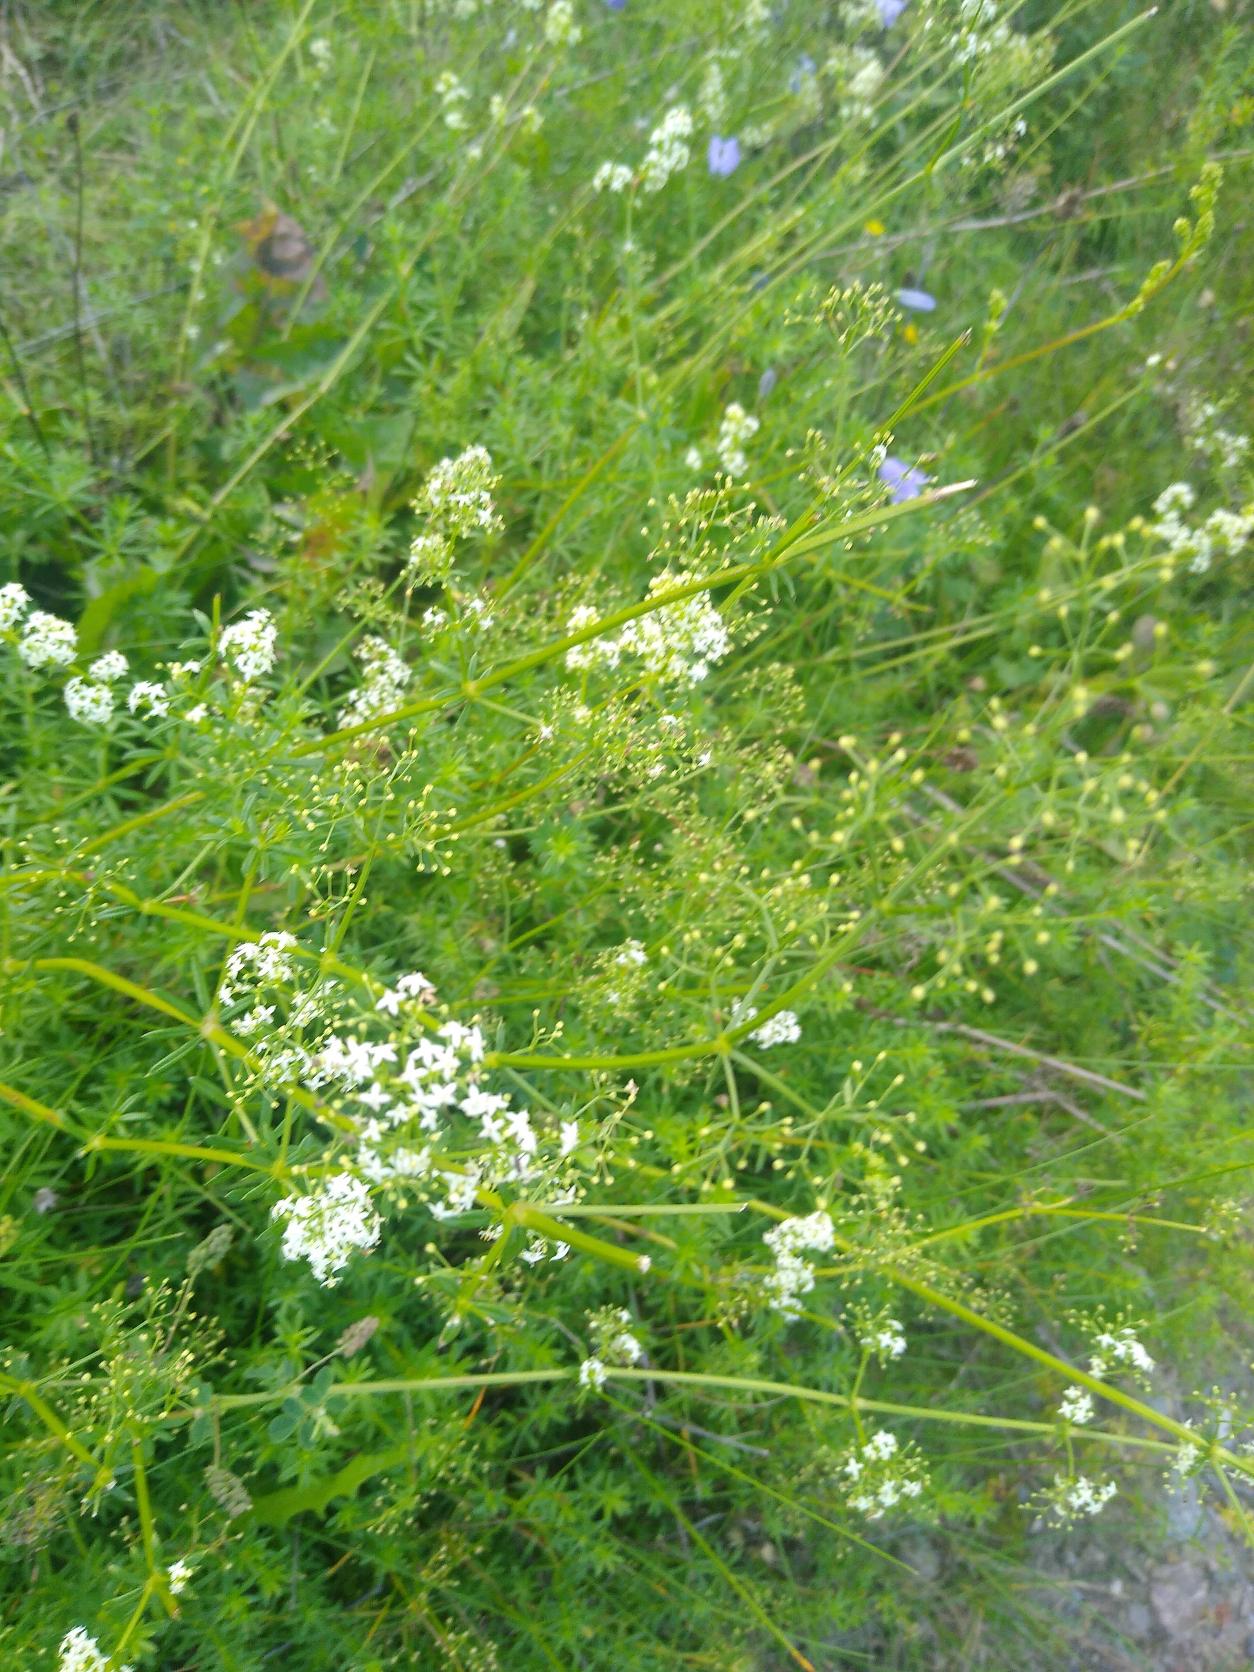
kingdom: Plantae
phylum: Tracheophyta
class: Magnoliopsida
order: Gentianales
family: Rubiaceae
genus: Galium
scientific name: Galium mollugo
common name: Hvid snerre
